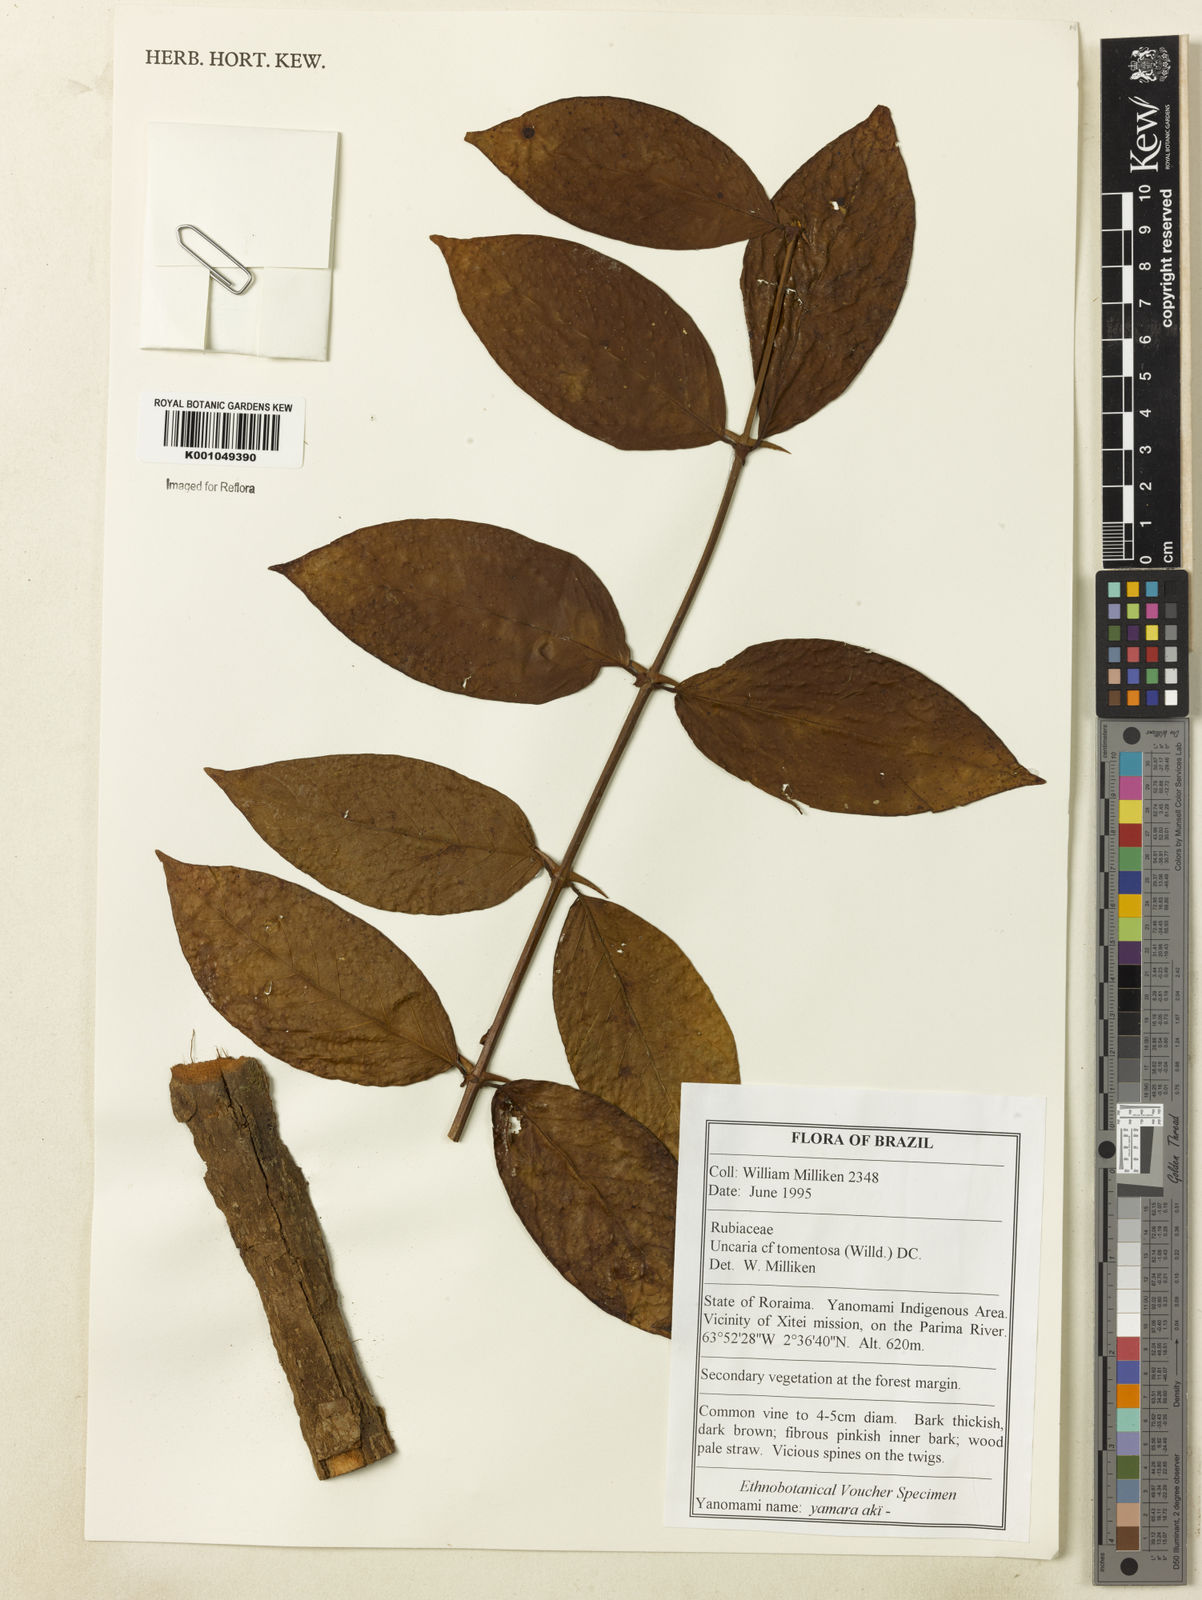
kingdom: Plantae
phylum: Tracheophyta
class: Magnoliopsida
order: Gentianales
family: Rubiaceae
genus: Uncaria
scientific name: Uncaria tomentosa
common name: Cat's-claw
